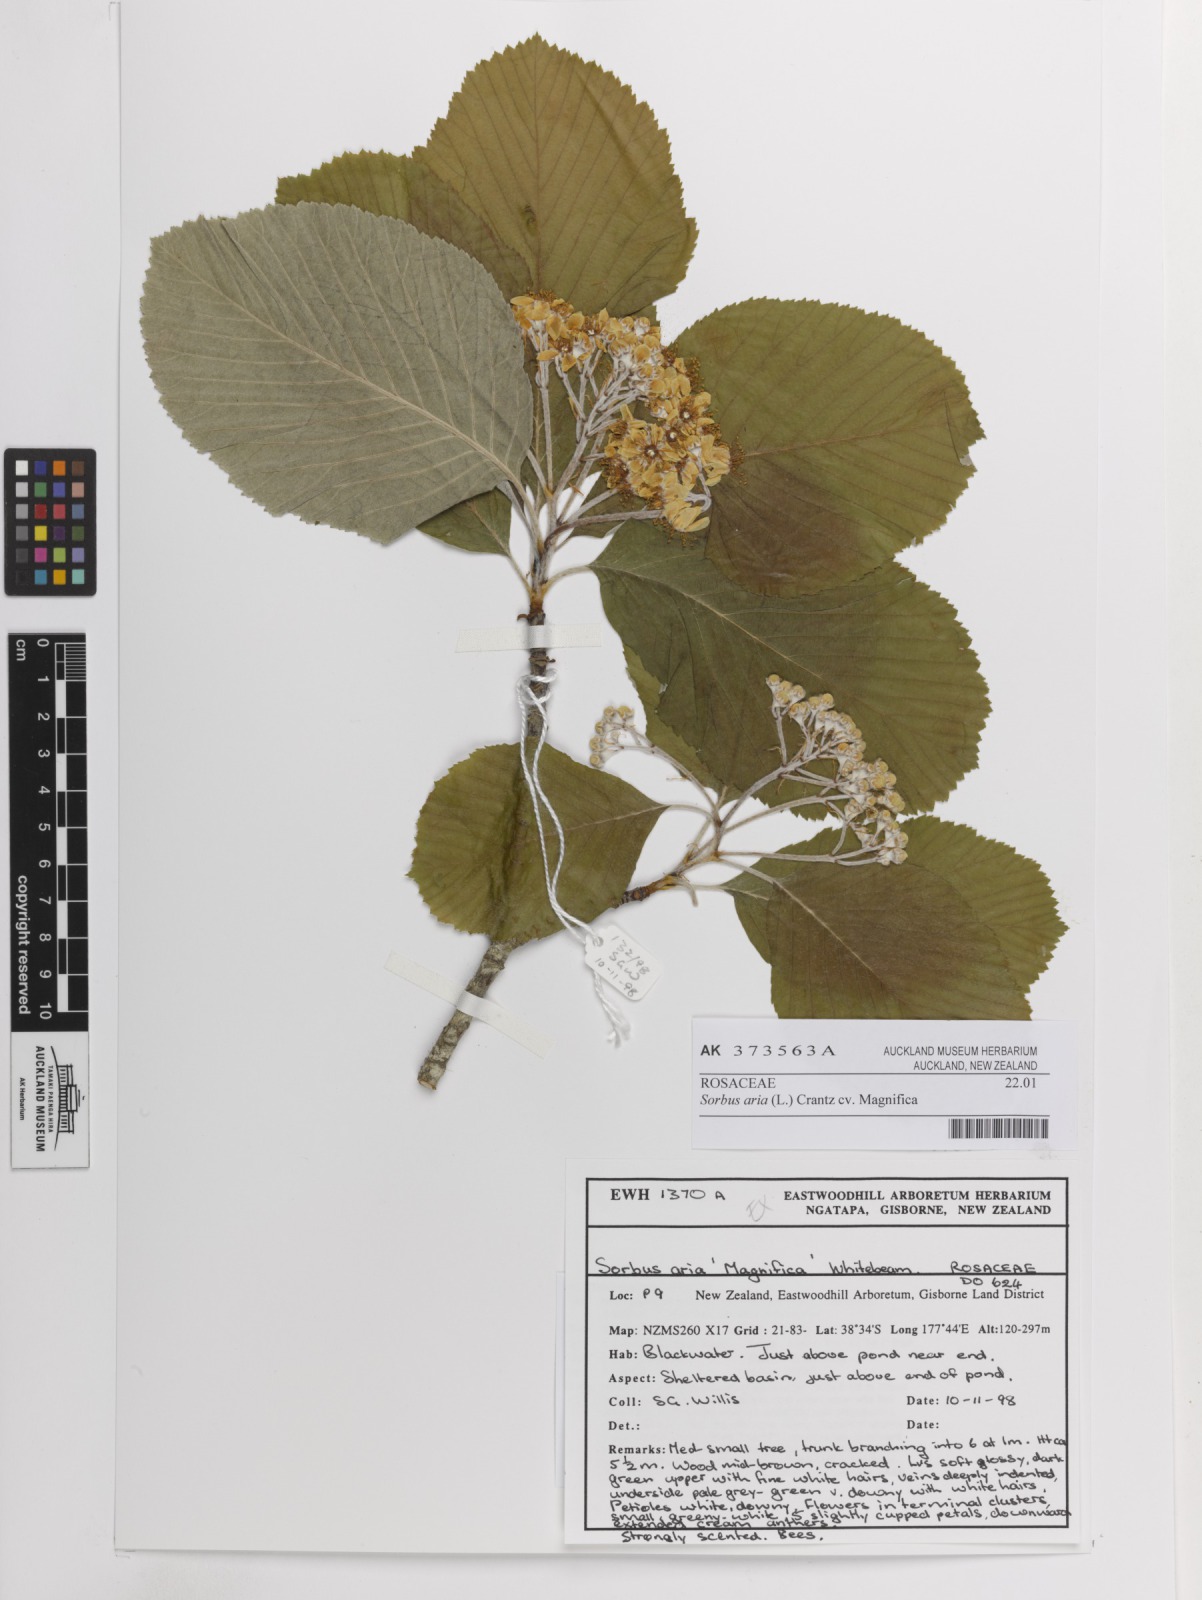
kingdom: Plantae
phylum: Tracheophyta
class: Magnoliopsida
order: Rosales
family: Rosaceae
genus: Sorbus
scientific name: Sorbus aria
